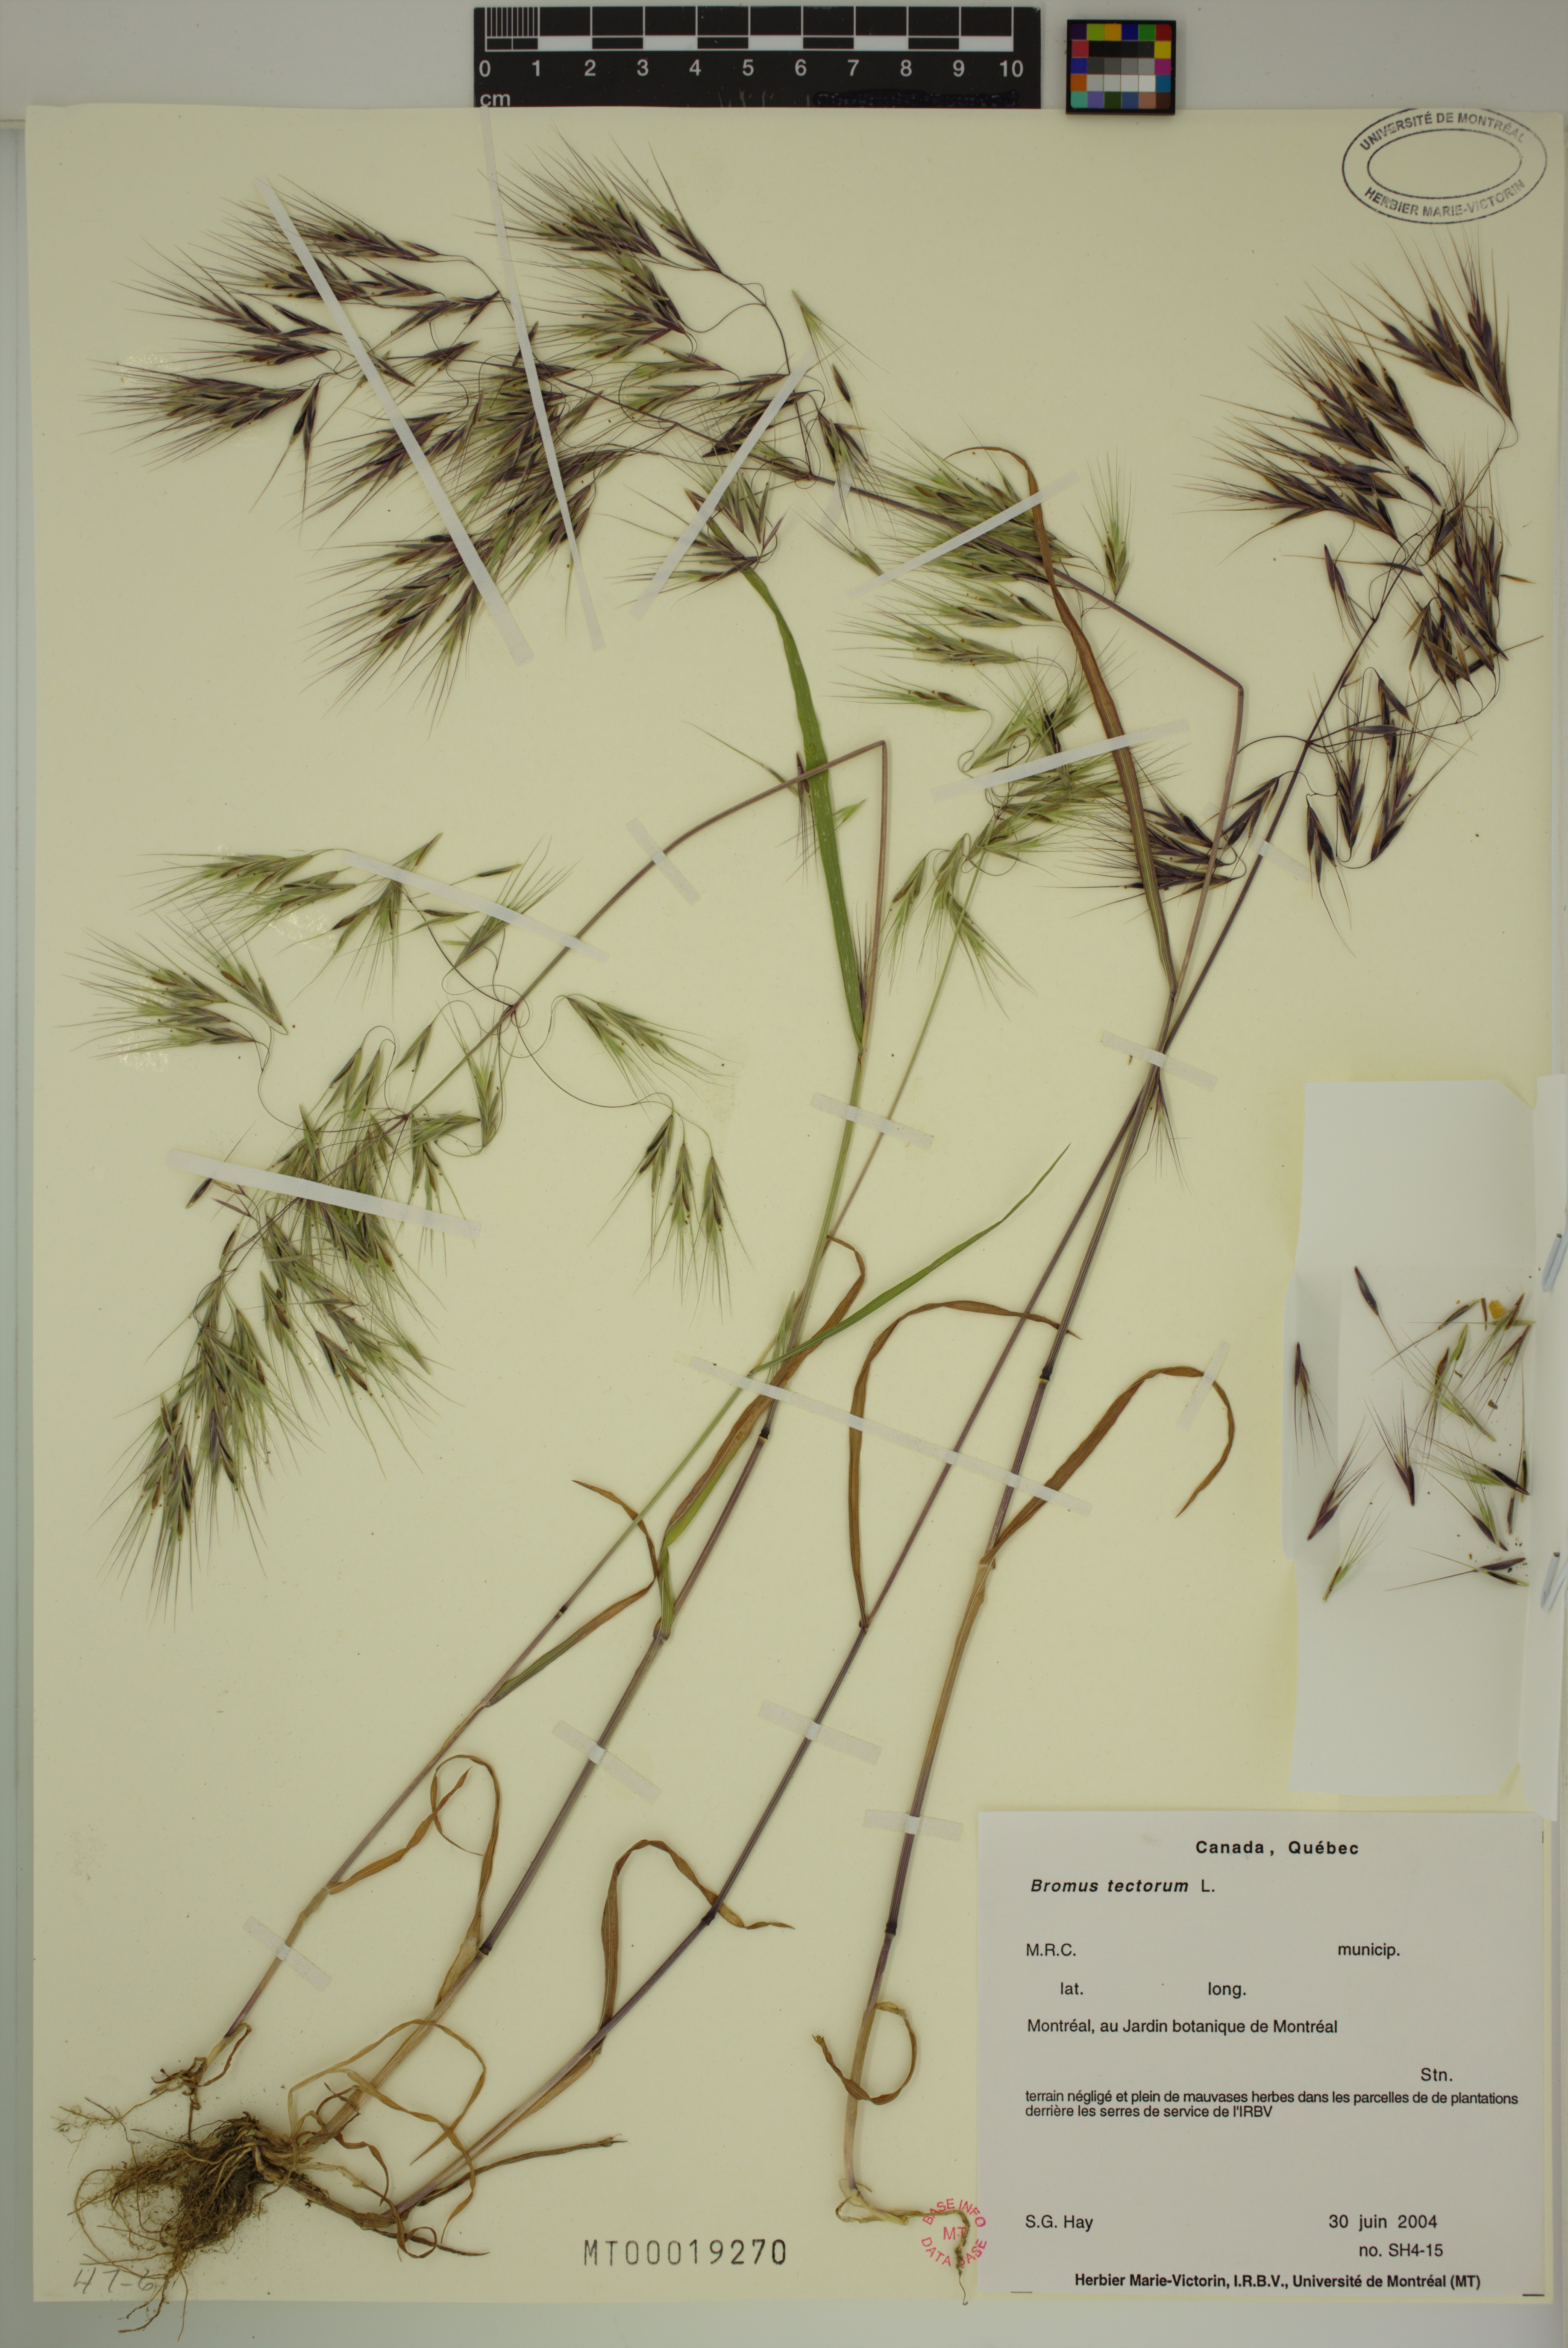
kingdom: Plantae
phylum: Tracheophyta
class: Liliopsida
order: Poales
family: Poaceae
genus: Bromus
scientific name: Bromus tectorum
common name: Cheatgrass
